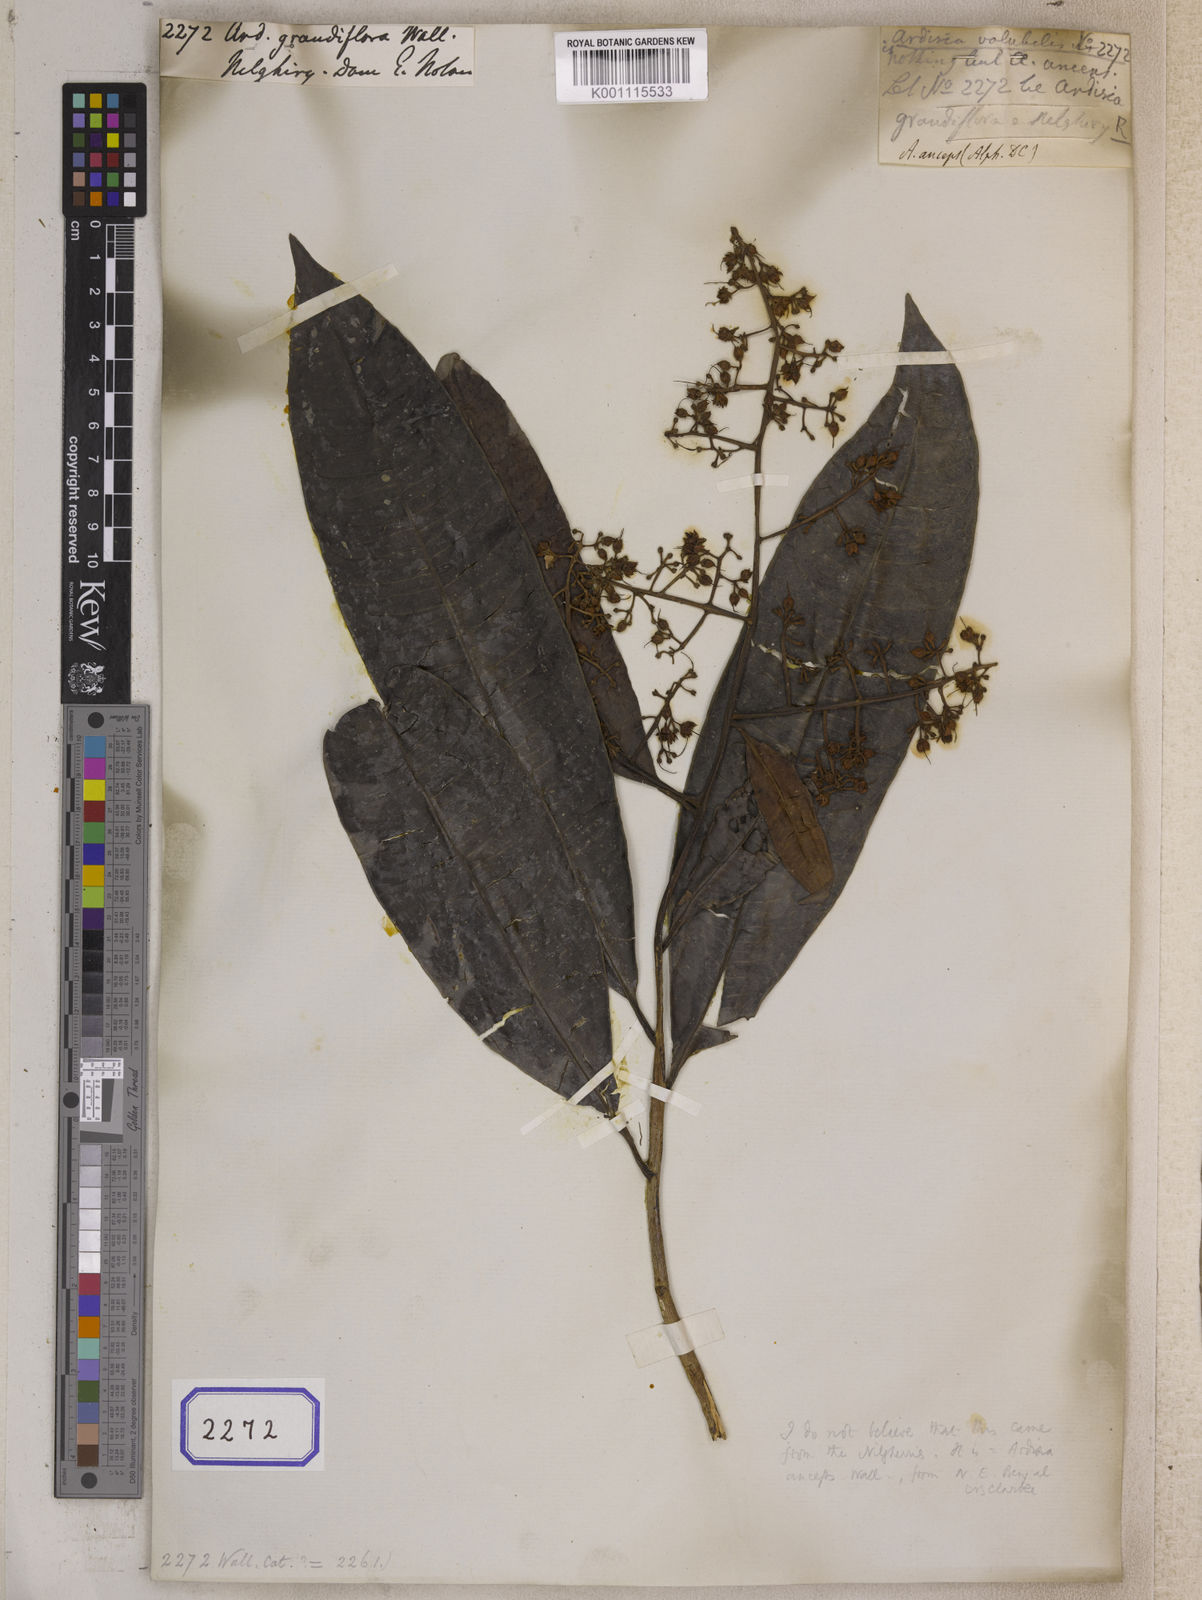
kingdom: Plantae
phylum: Tracheophyta
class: Magnoliopsida
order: Ericales
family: Primulaceae
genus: Ardisia
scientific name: Ardisia colorata
